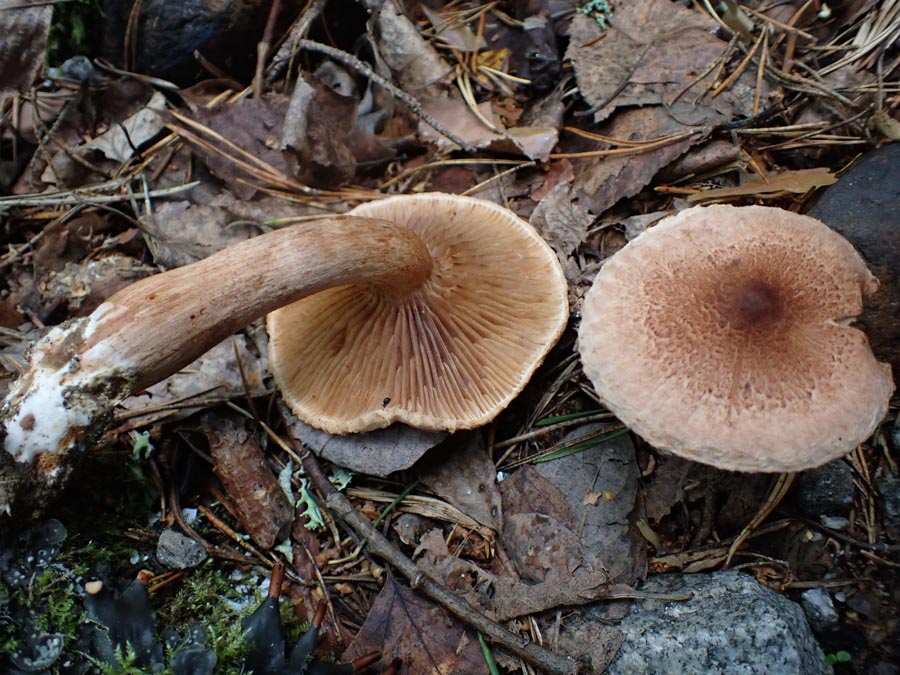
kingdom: Fungi
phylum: Basidiomycota
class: Agaricomycetes
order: Agaricales
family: Tricholomataceae
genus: Tricholoma
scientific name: Tricholoma vaccinum
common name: ko-ridderhat
